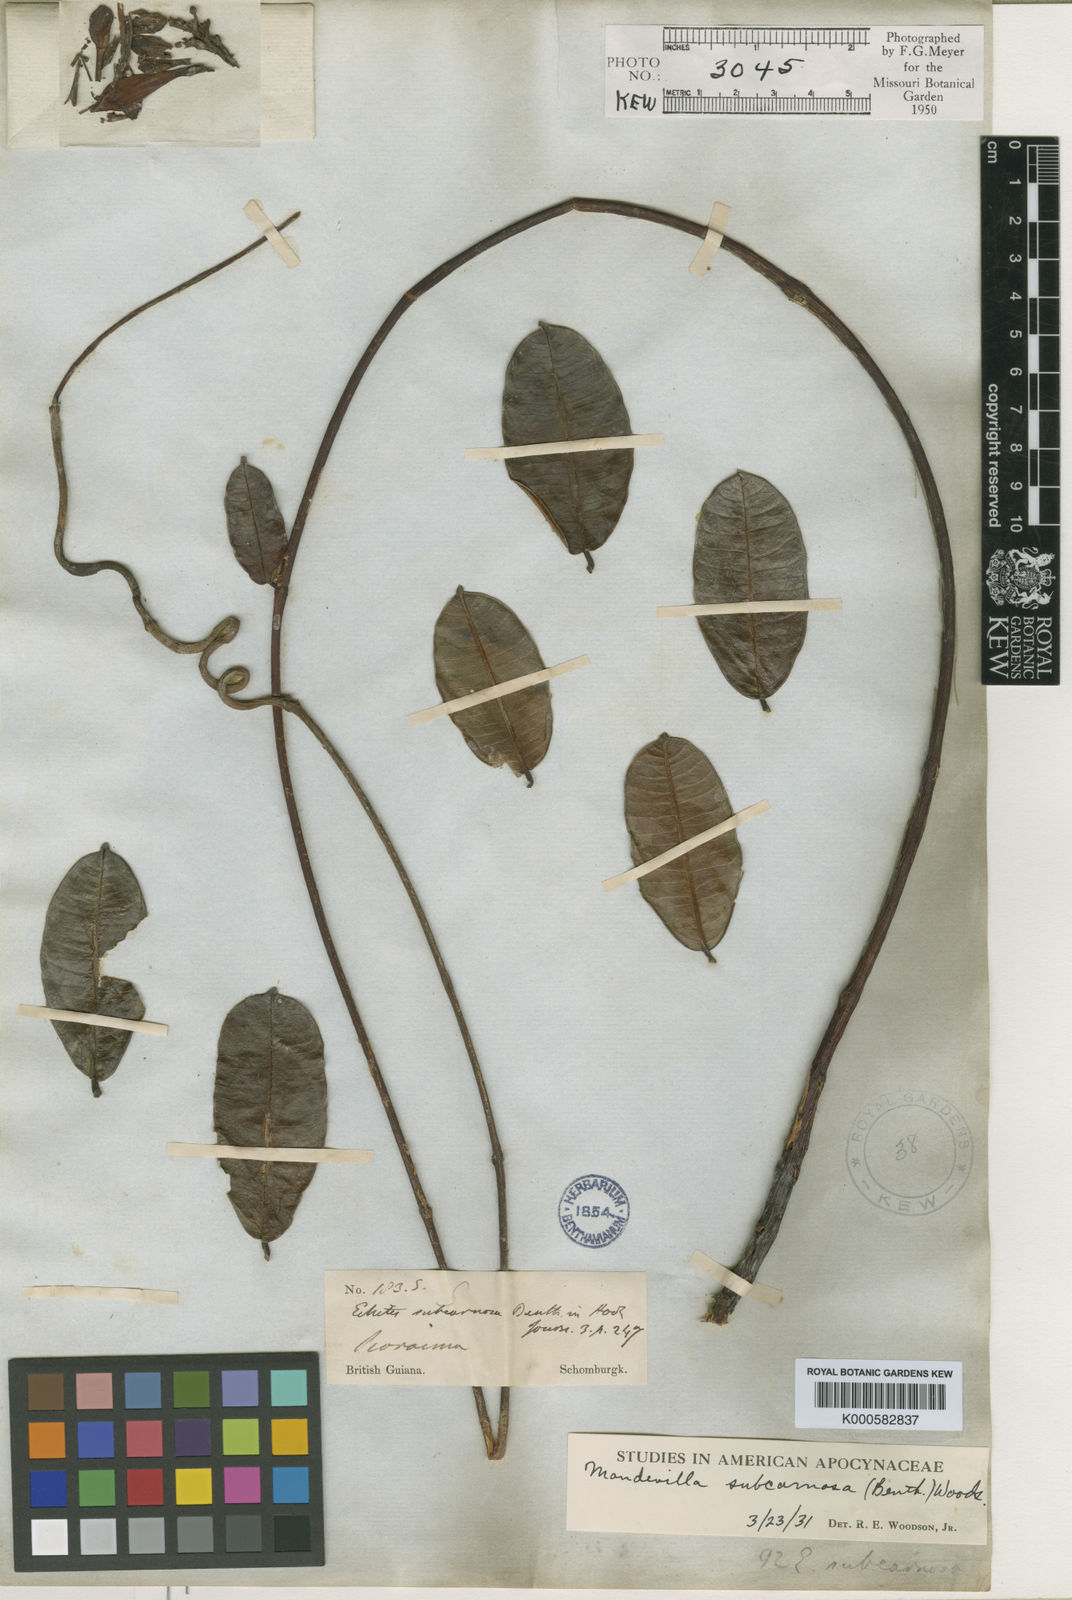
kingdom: Plantae
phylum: Tracheophyta
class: Magnoliopsida
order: Gentianales
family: Apocynaceae
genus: Mandevilla
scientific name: Mandevilla
